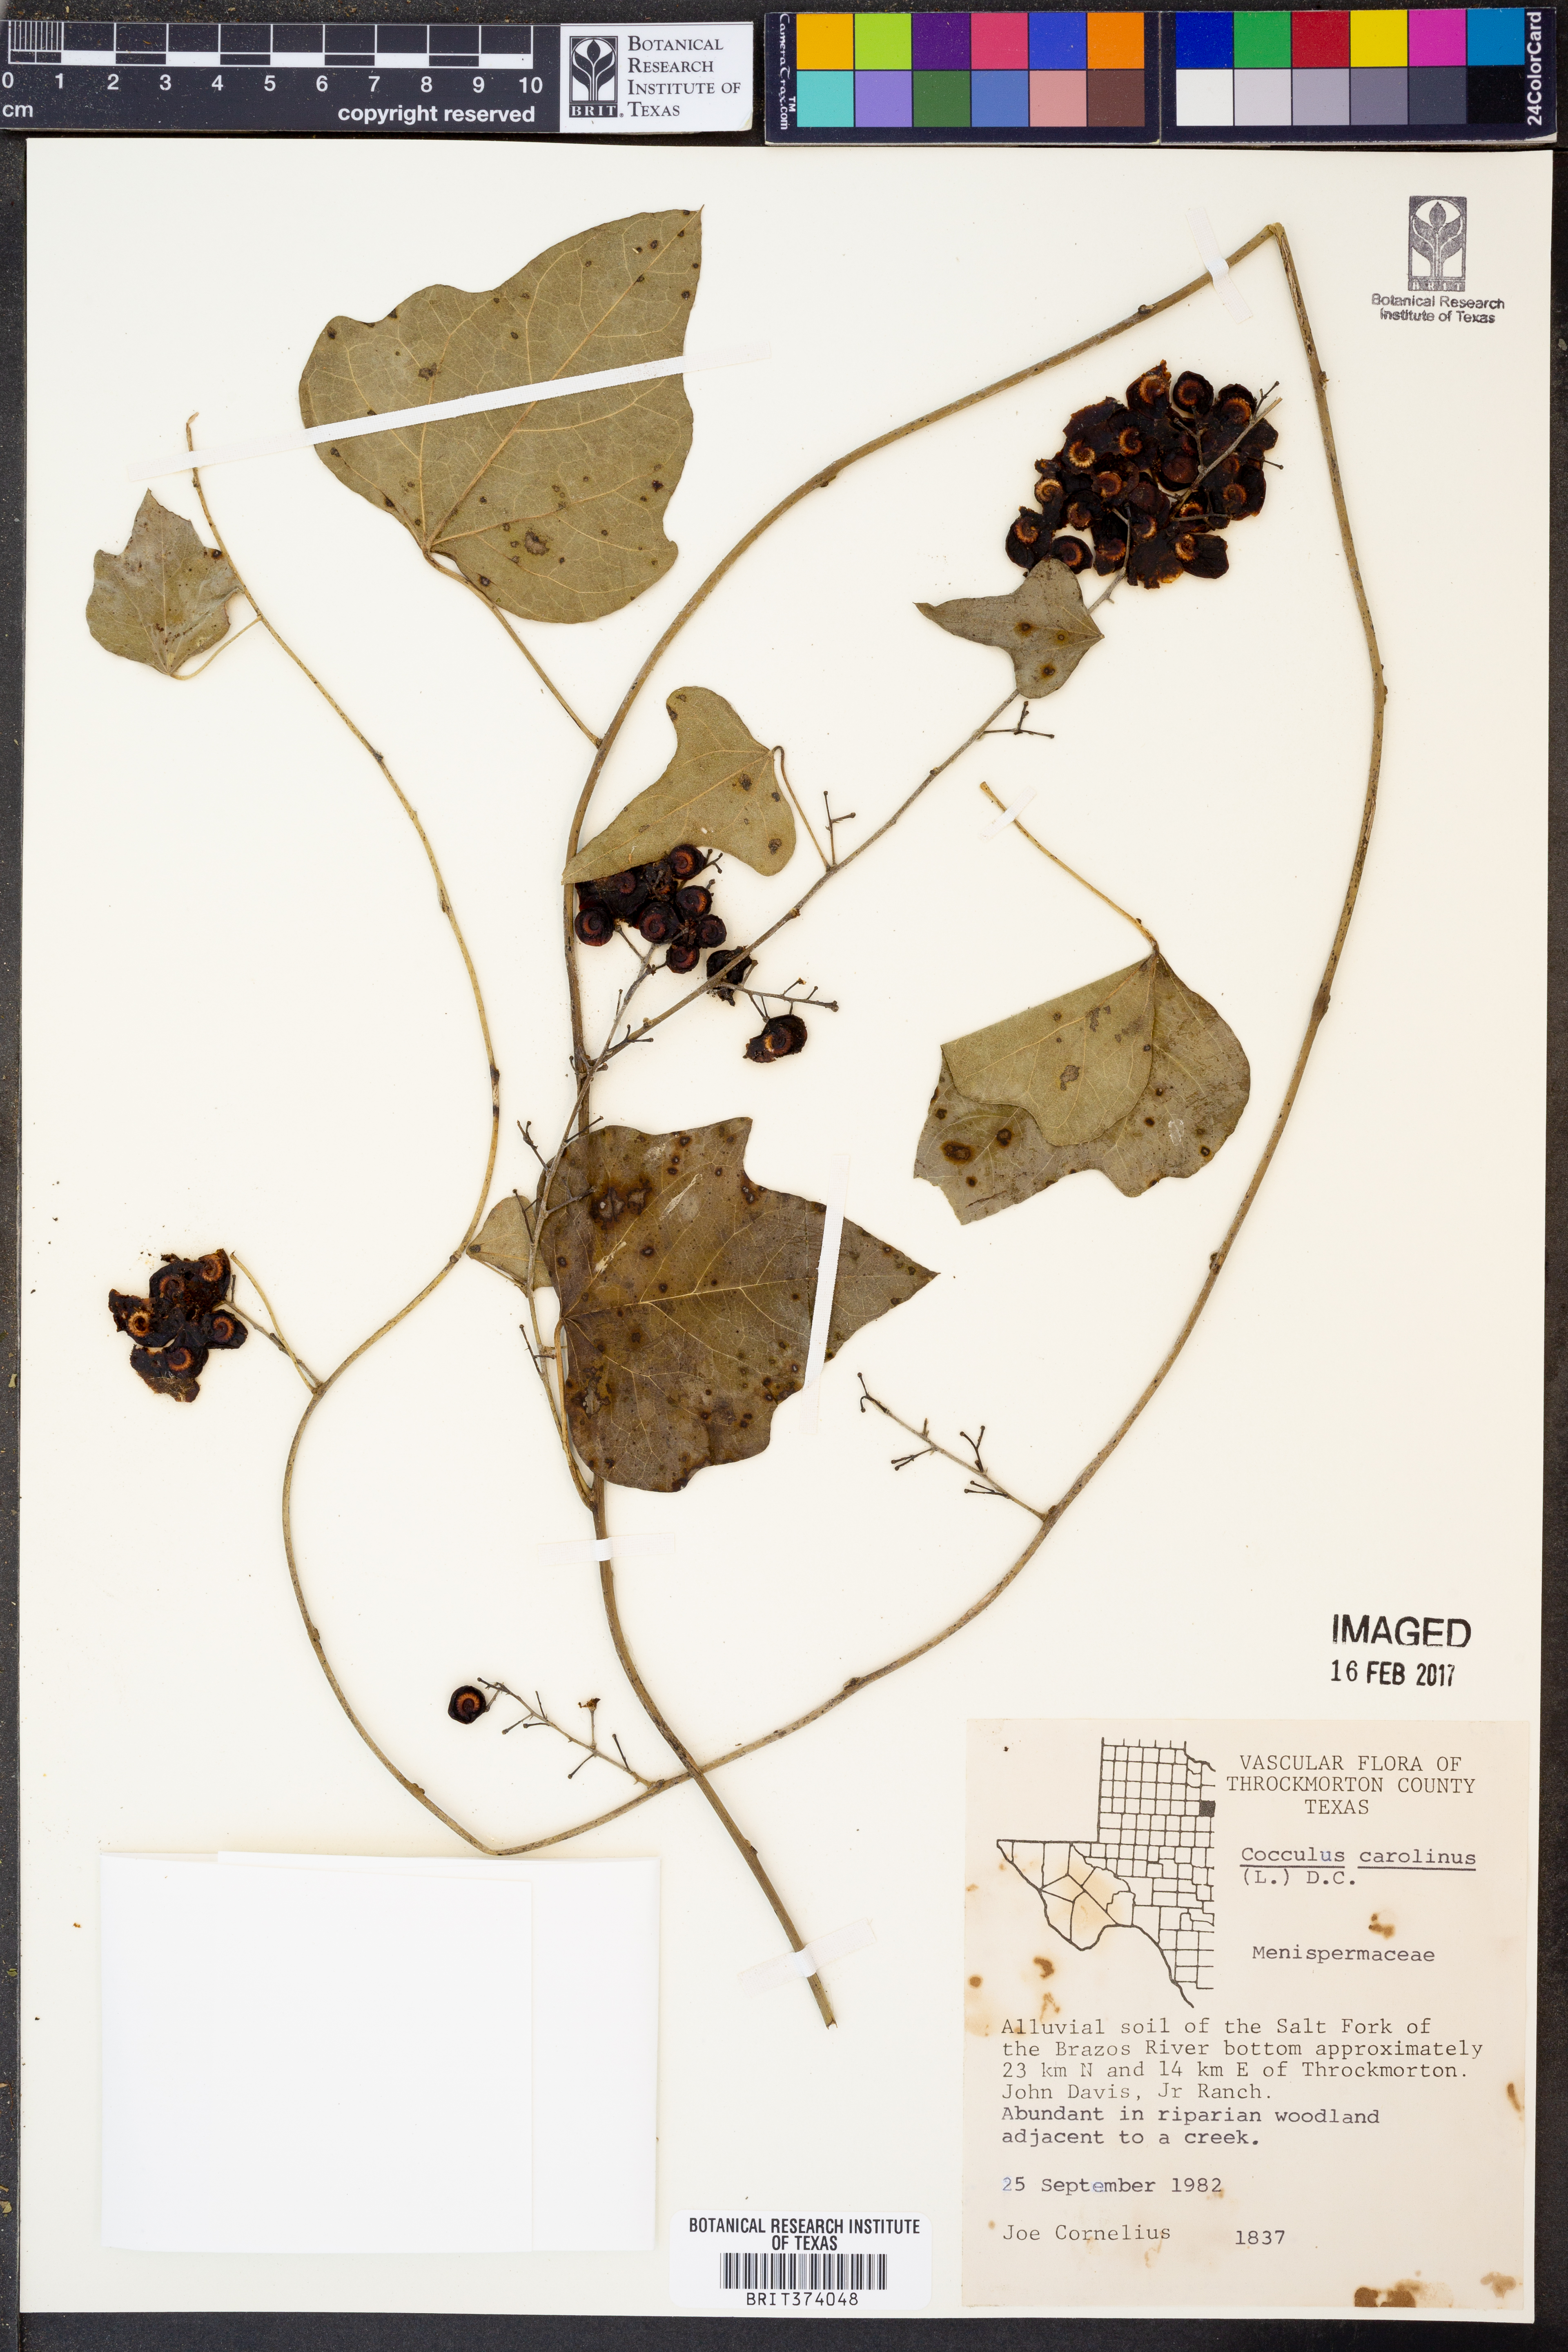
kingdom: Plantae
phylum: Tracheophyta
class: Magnoliopsida
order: Ranunculales
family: Menispermaceae
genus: Cocculus
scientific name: Cocculus carolinus
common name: Carolina moonseed
